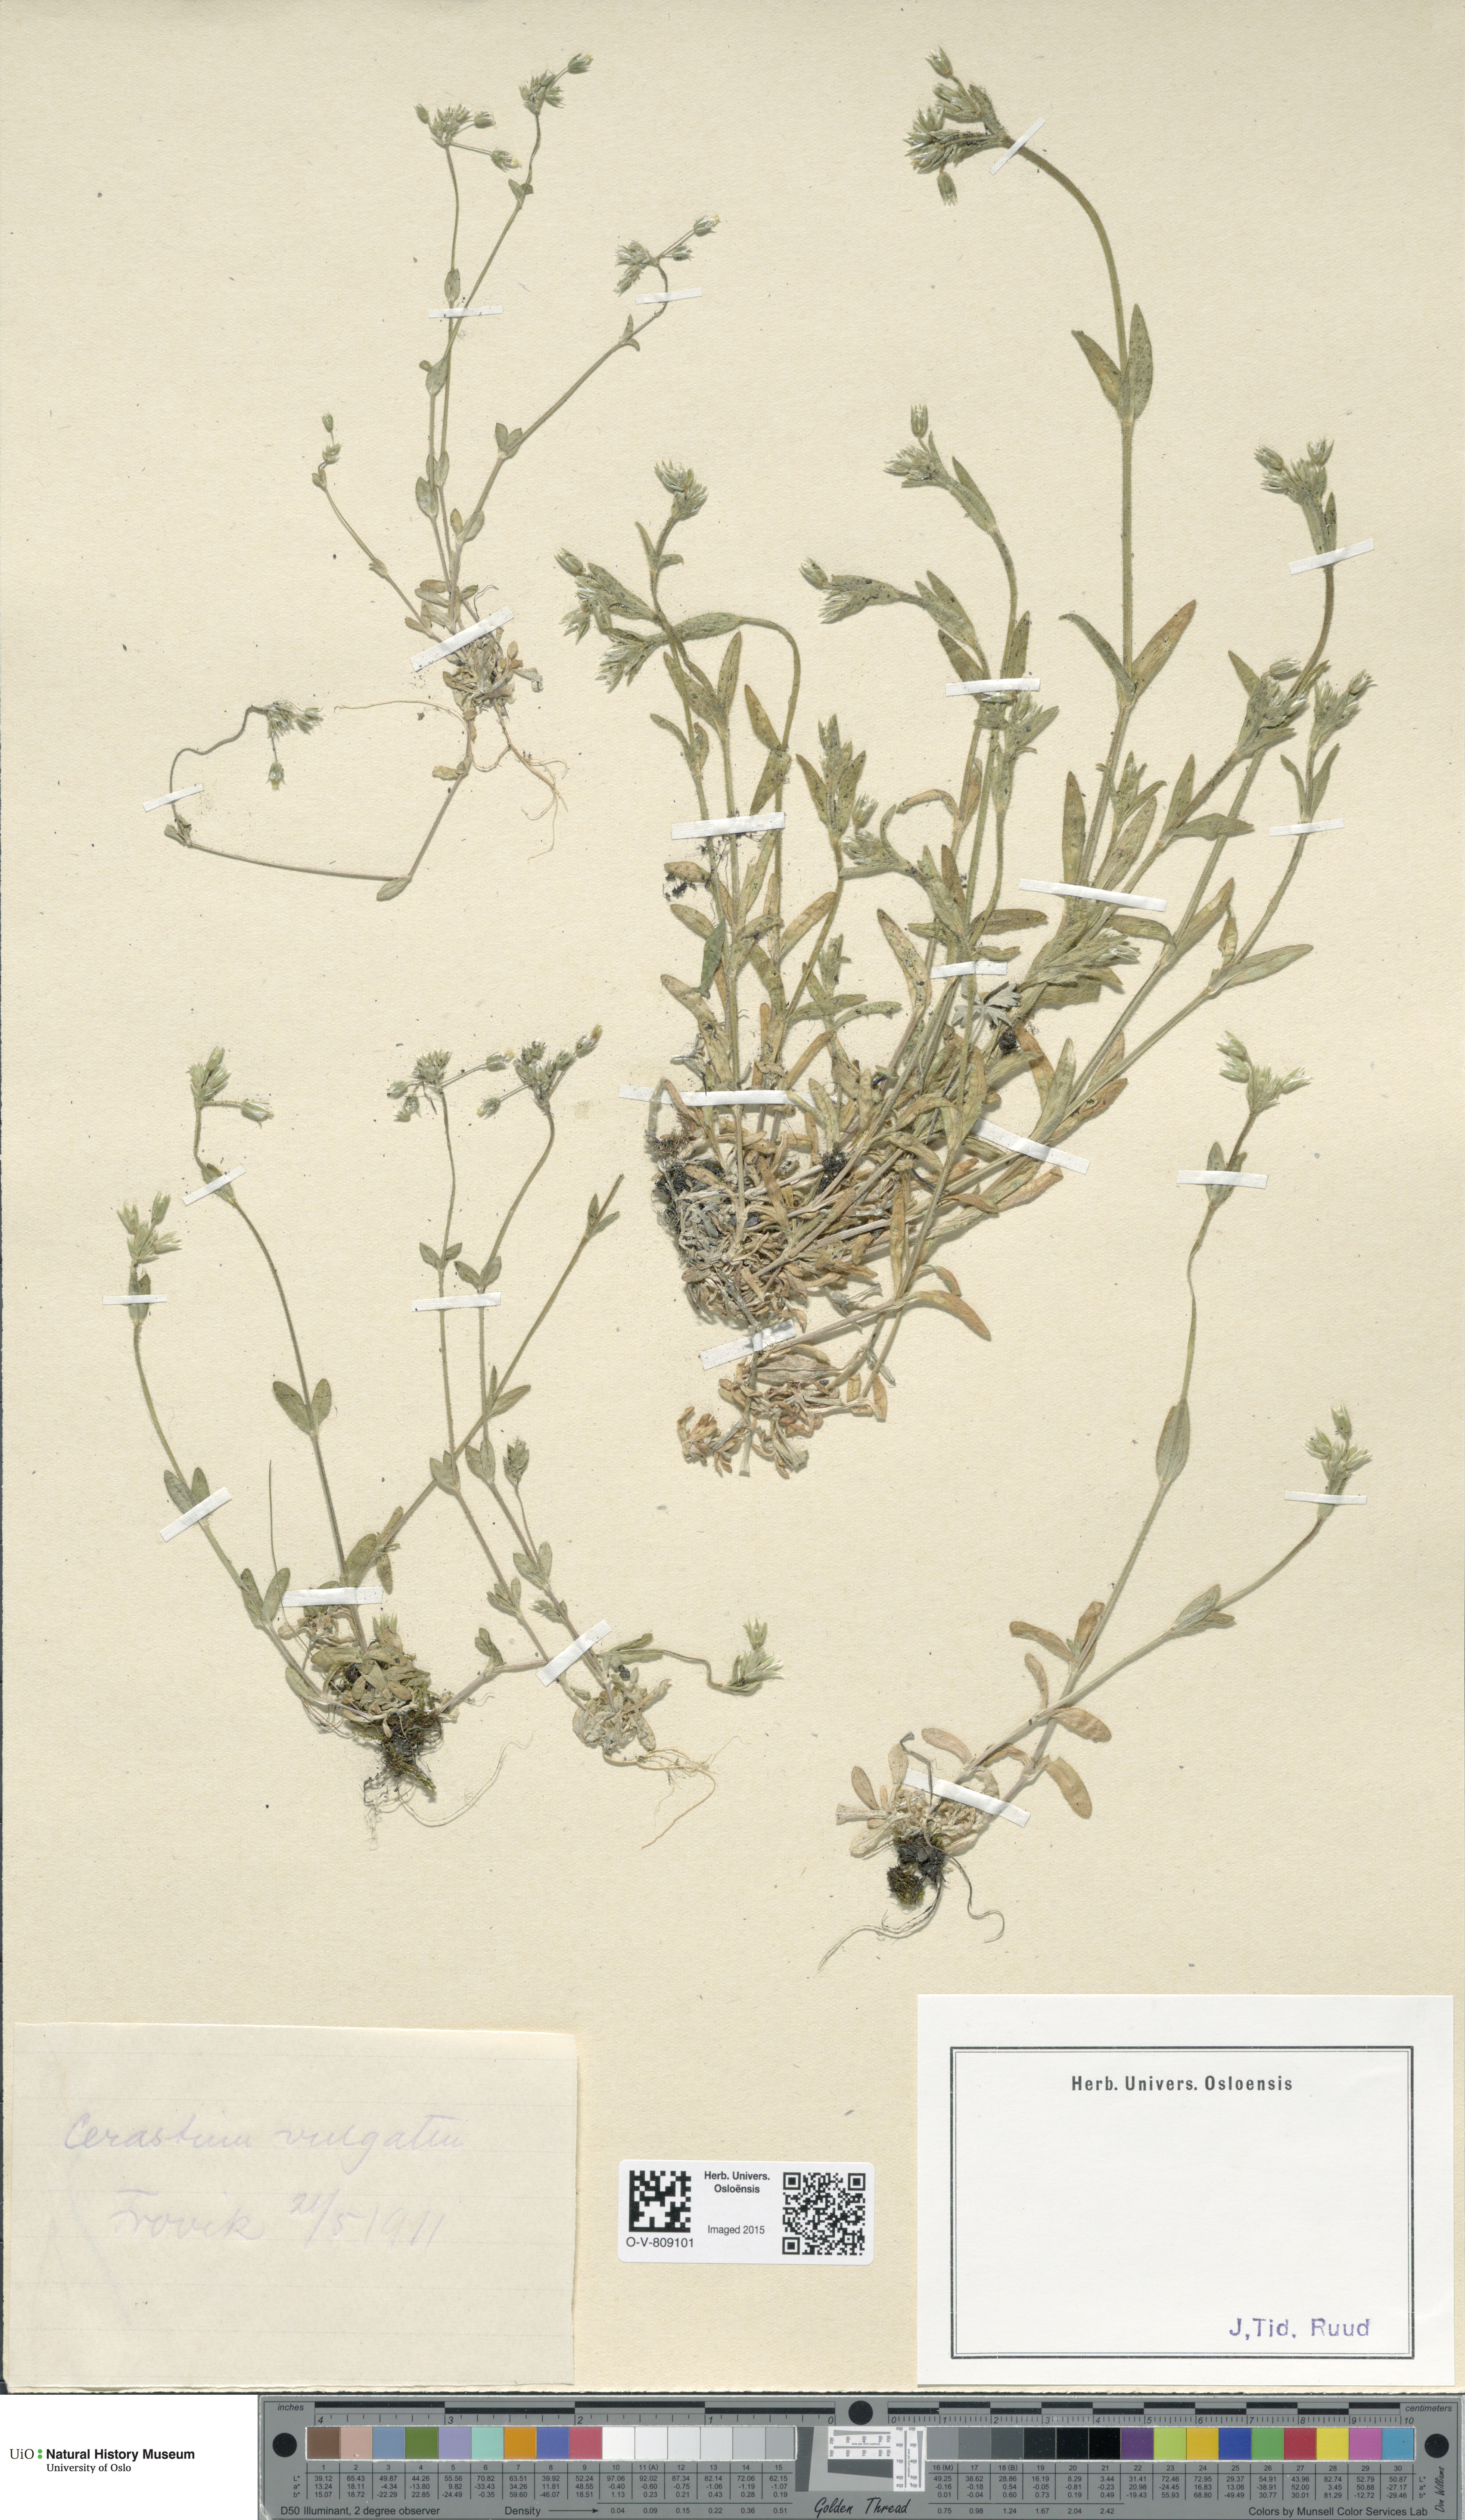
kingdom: Plantae
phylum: Tracheophyta
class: Magnoliopsida
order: Caryophyllales
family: Caryophyllaceae
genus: Cerastium
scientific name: Cerastium holosteoides
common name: Big chickweed
